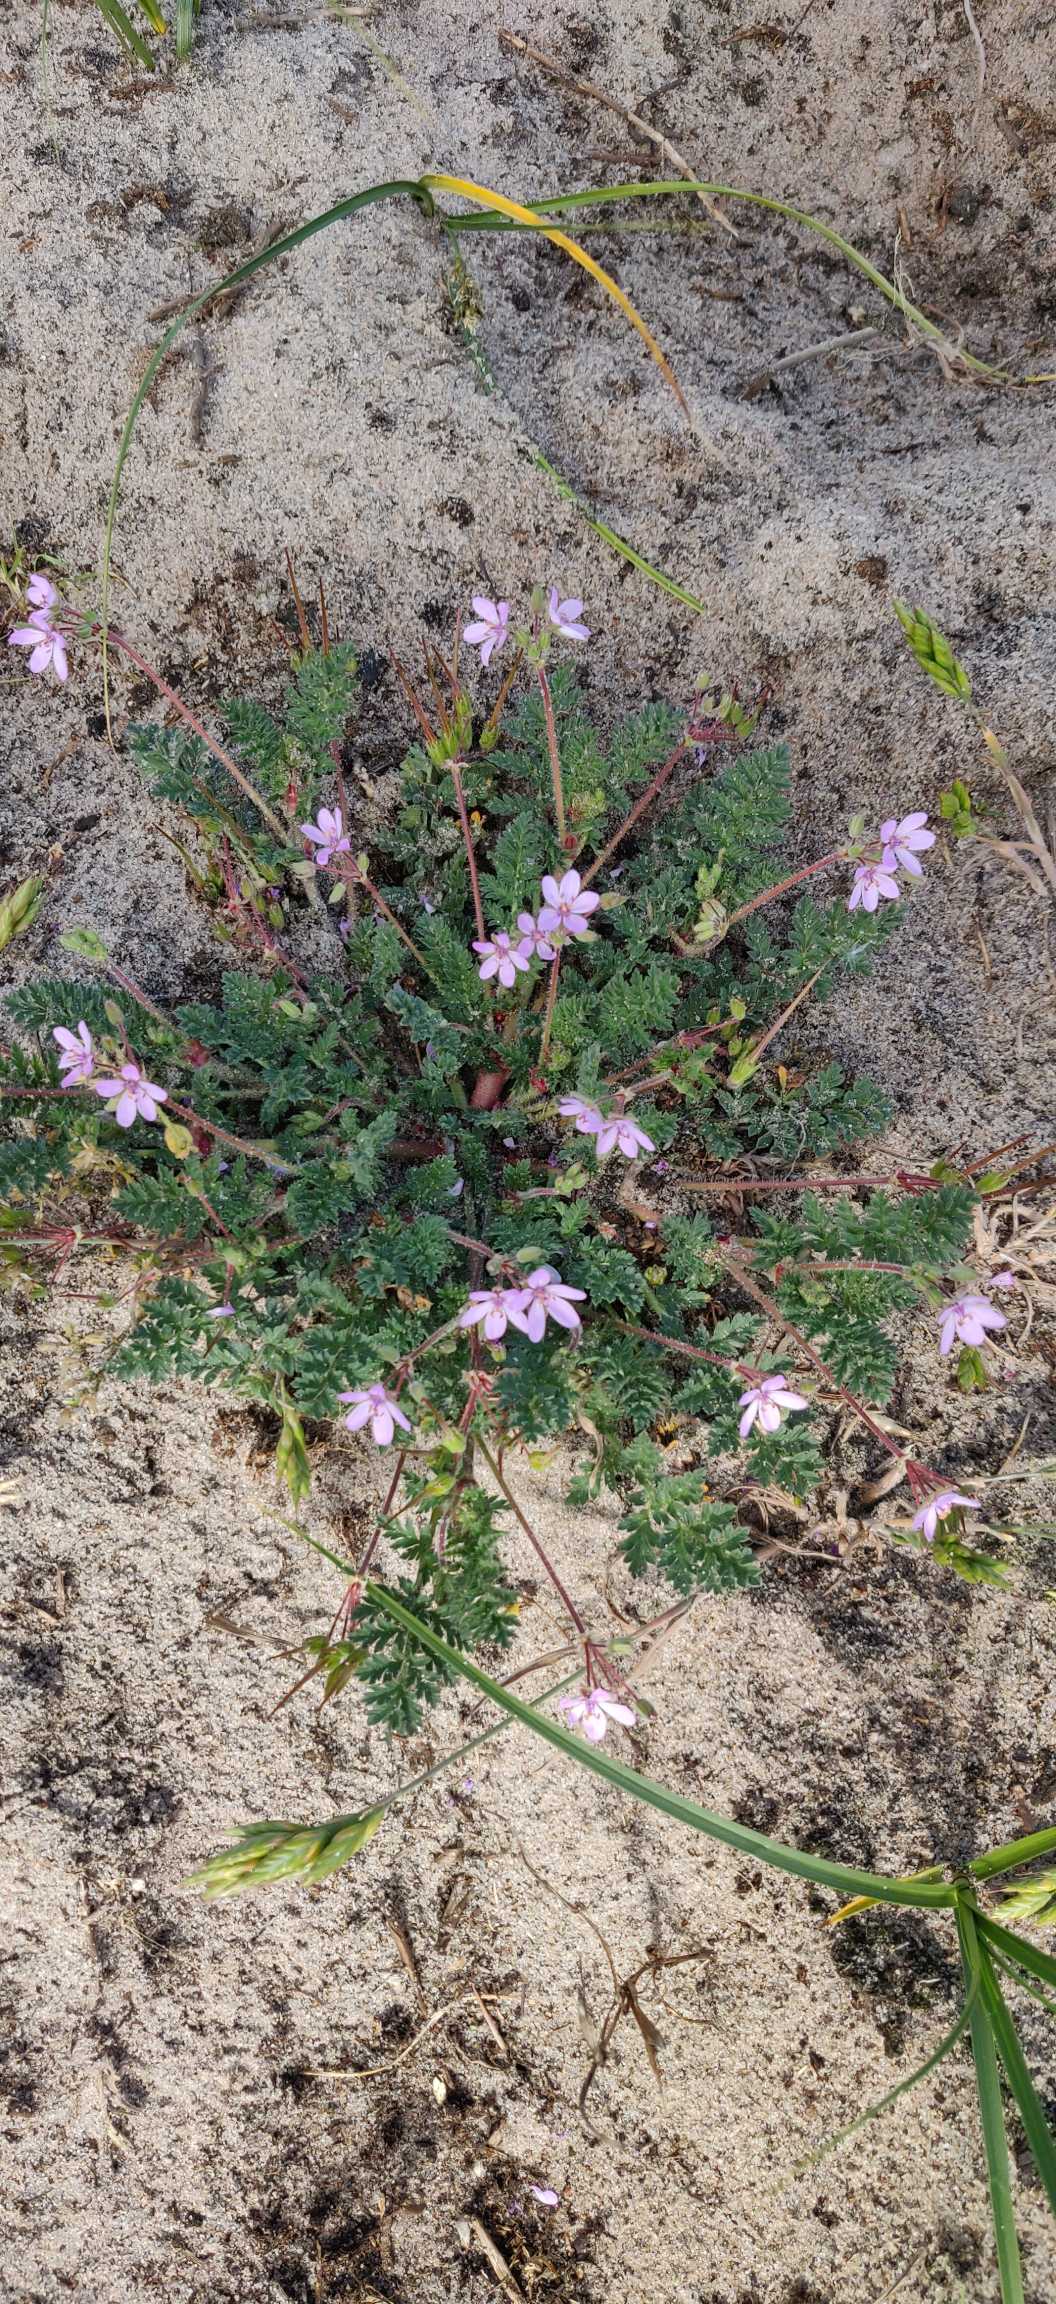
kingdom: Plantae
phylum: Tracheophyta
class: Magnoliopsida
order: Geraniales
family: Geraniaceae
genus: Erodium
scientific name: Erodium cicutarium
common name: Hejrenæb
